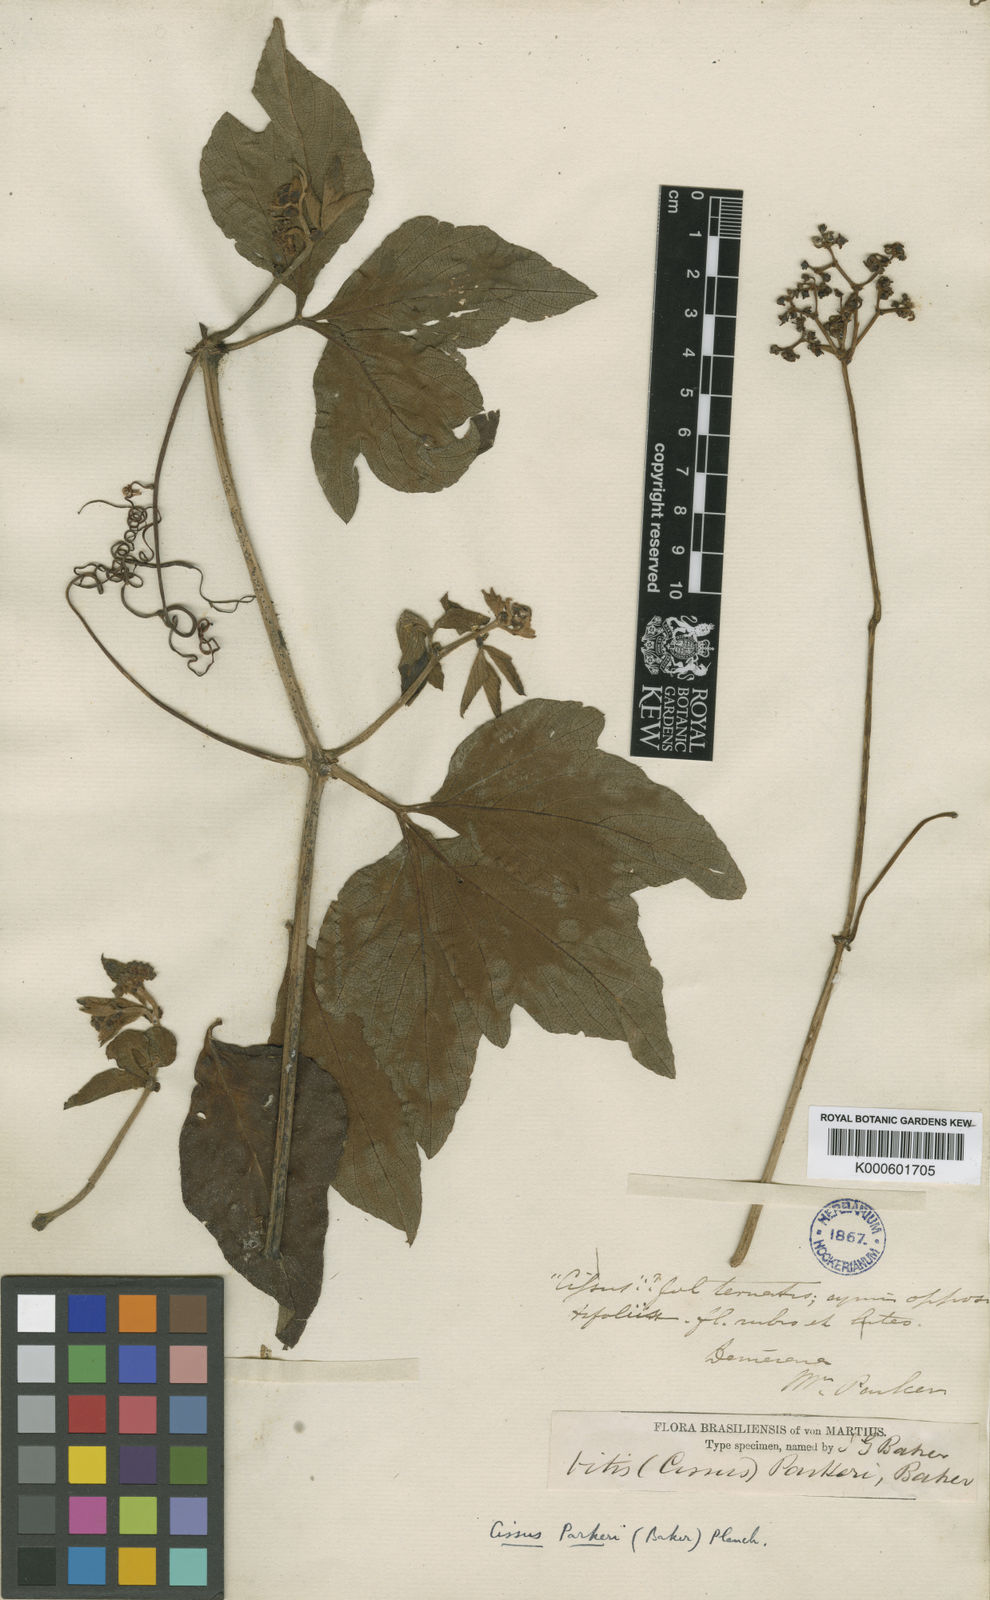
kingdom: Plantae
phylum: Tracheophyta
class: Magnoliopsida
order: Vitales
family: Vitaceae
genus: Cissus
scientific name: Cissus spinosa
